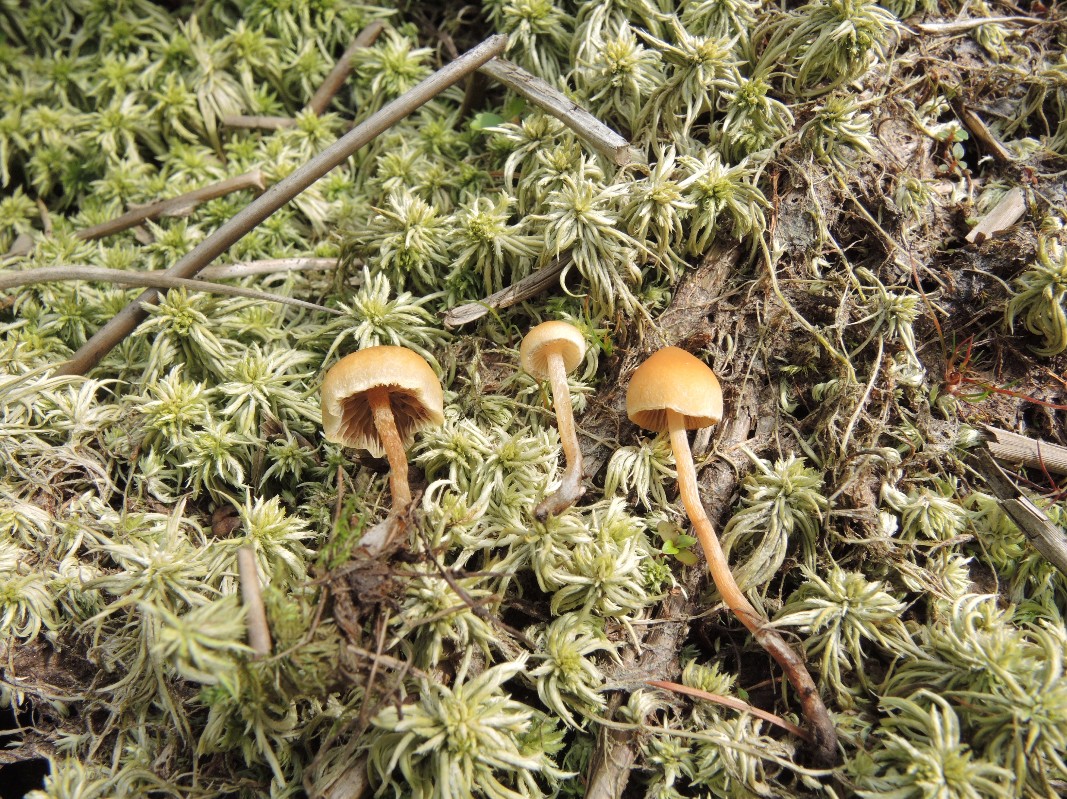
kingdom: Fungi
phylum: Basidiomycota
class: Agaricomycetes
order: Agaricales
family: Strophariaceae
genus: Hypholoma
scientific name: Hypholoma elongatum
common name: slank svovlhat
